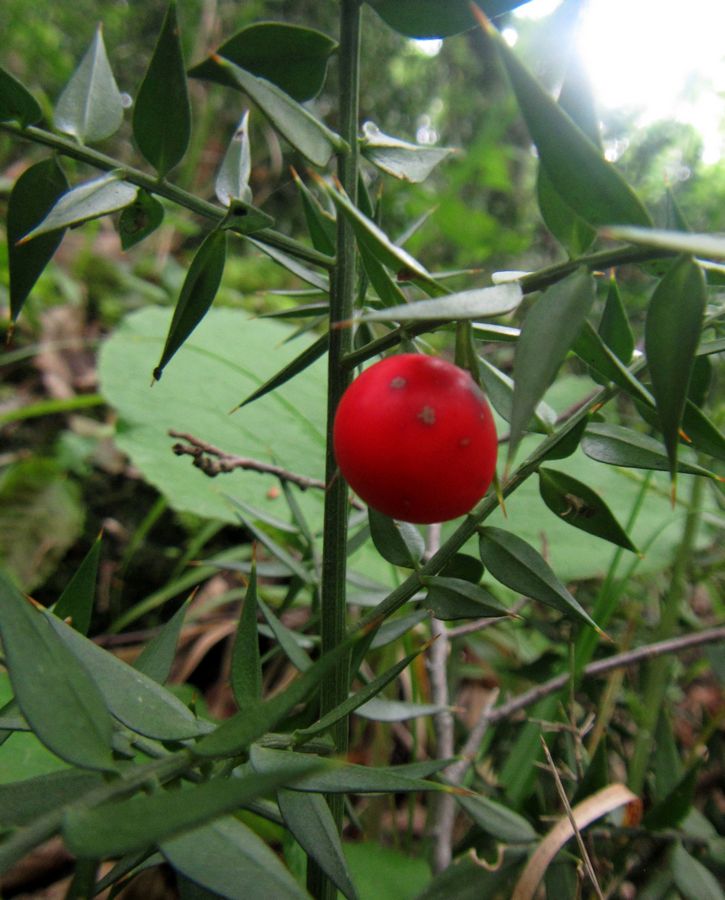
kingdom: Plantae
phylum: Tracheophyta
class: Liliopsida
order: Liliales
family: Liliaceae
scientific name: Liliaceae
